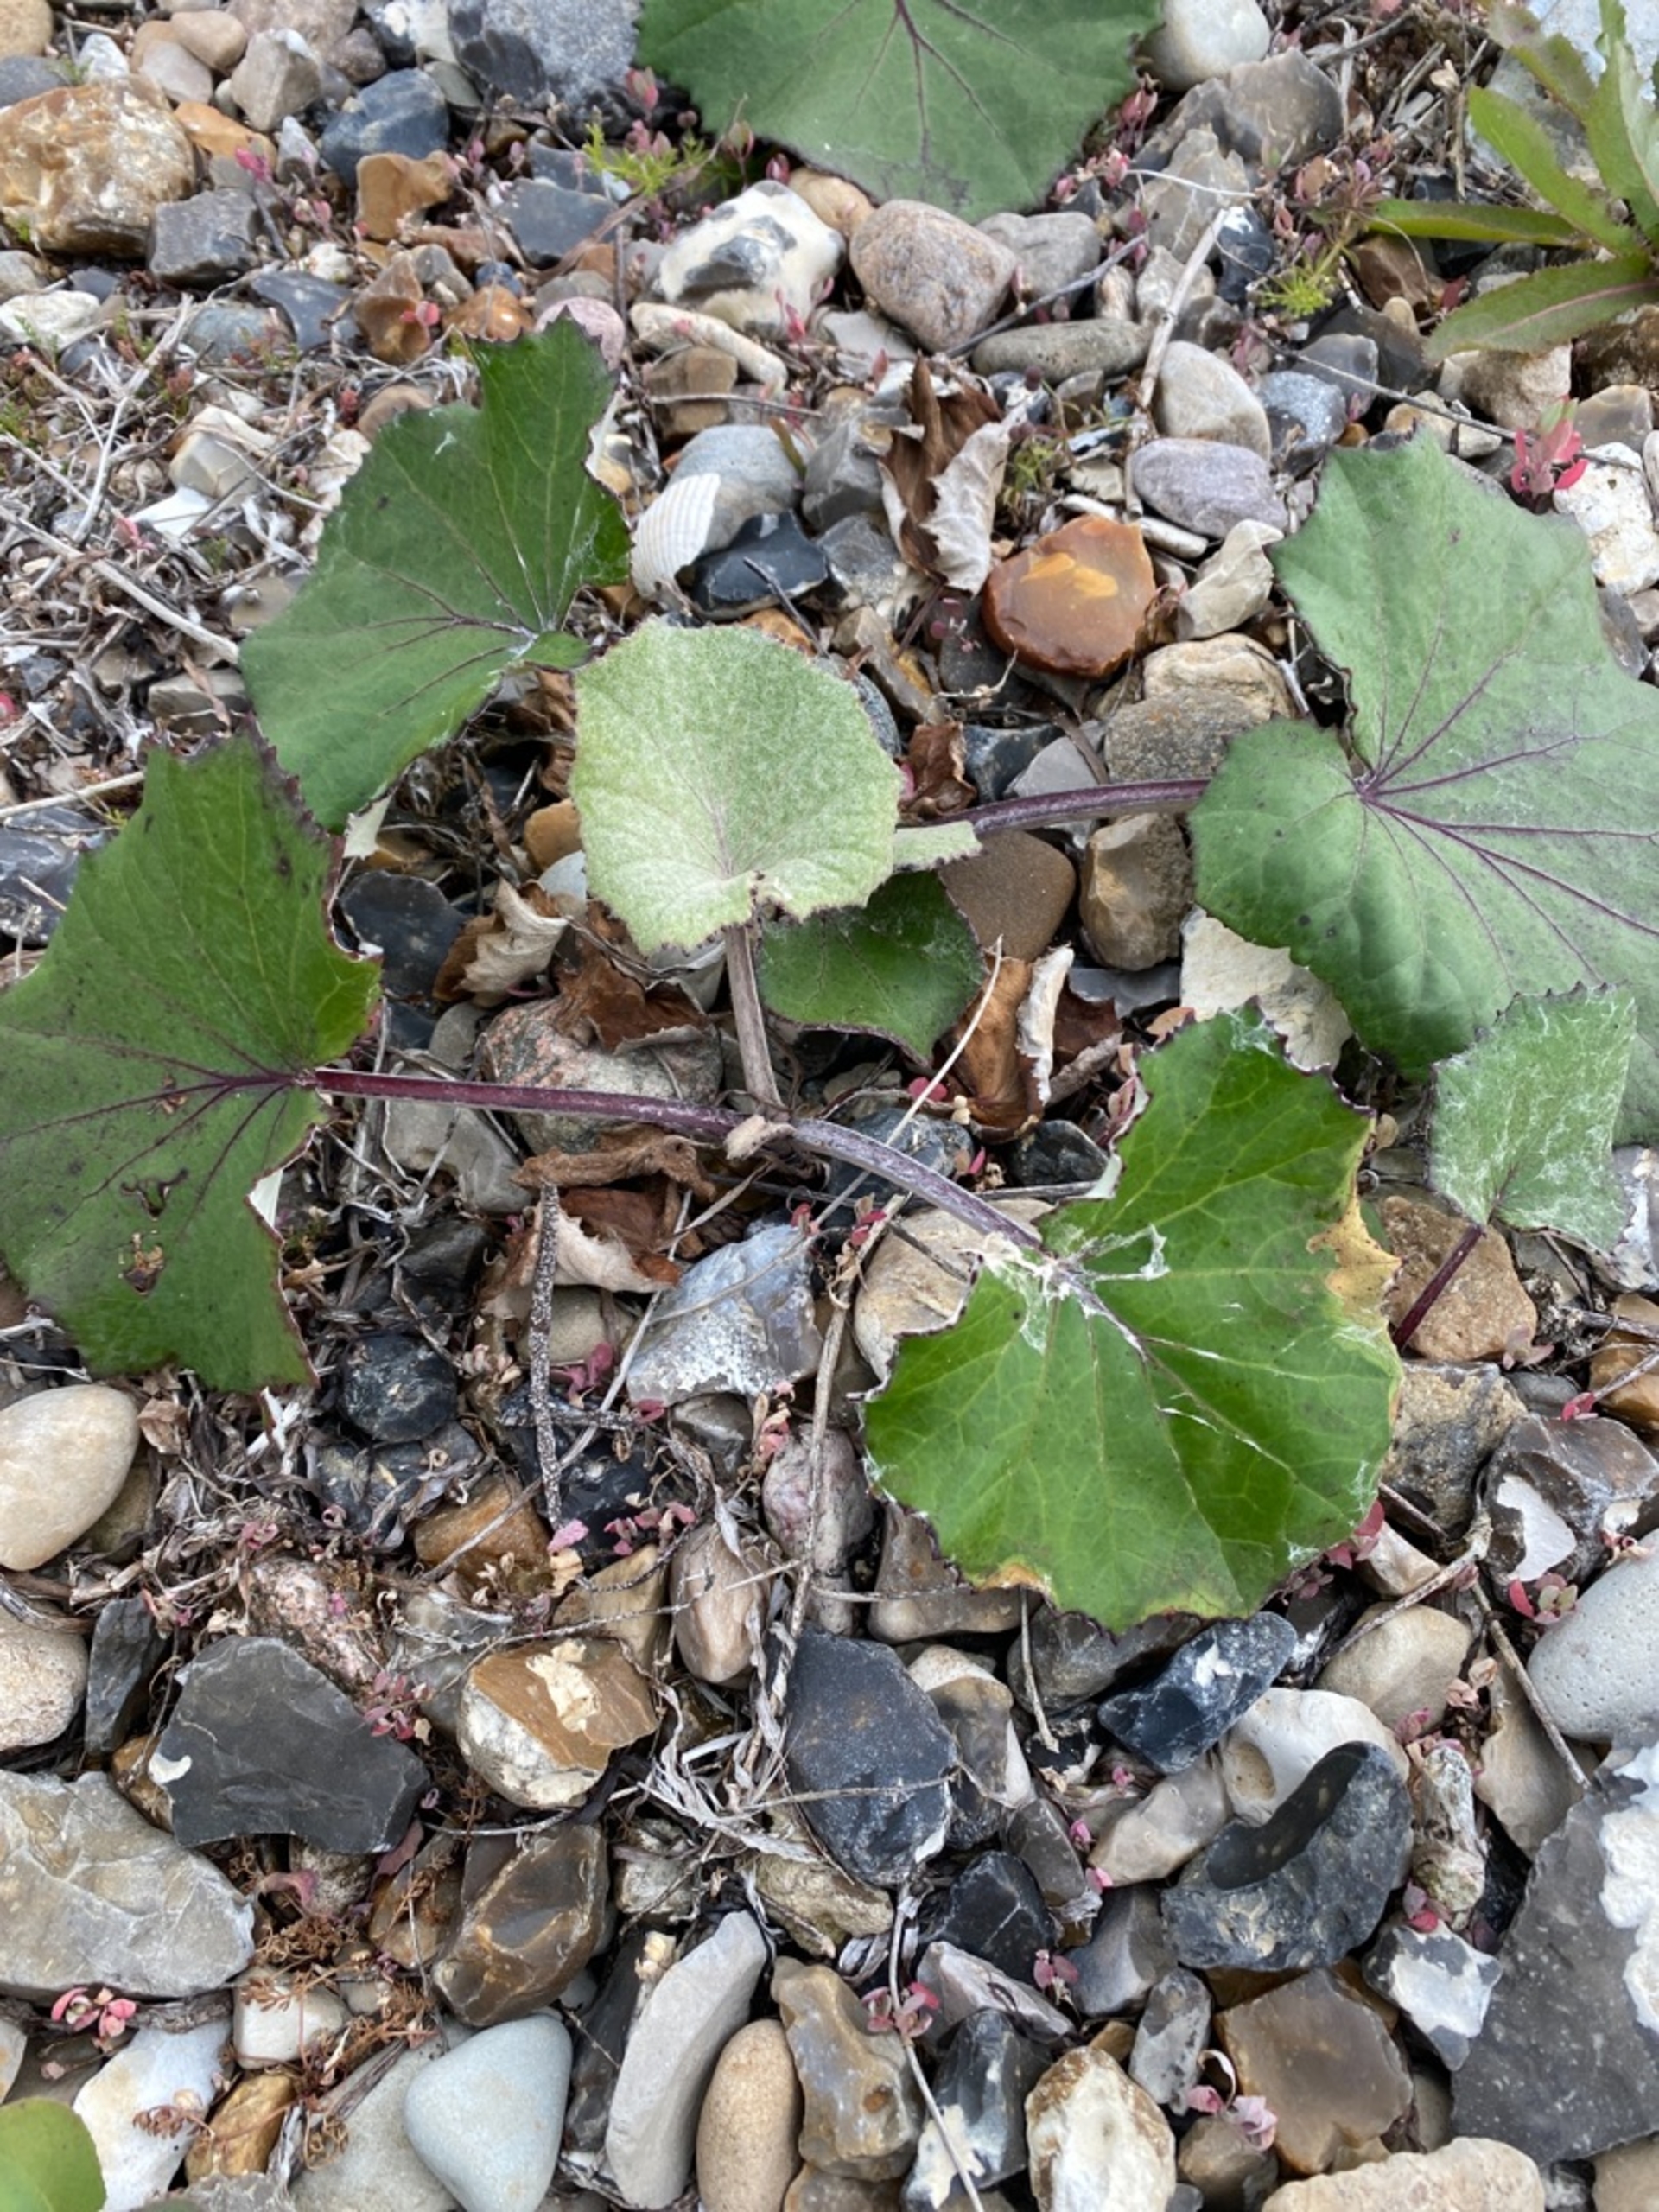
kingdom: Plantae
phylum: Tracheophyta
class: Magnoliopsida
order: Asterales
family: Asteraceae
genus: Tussilago
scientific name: Tussilago farfara
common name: Følfod
